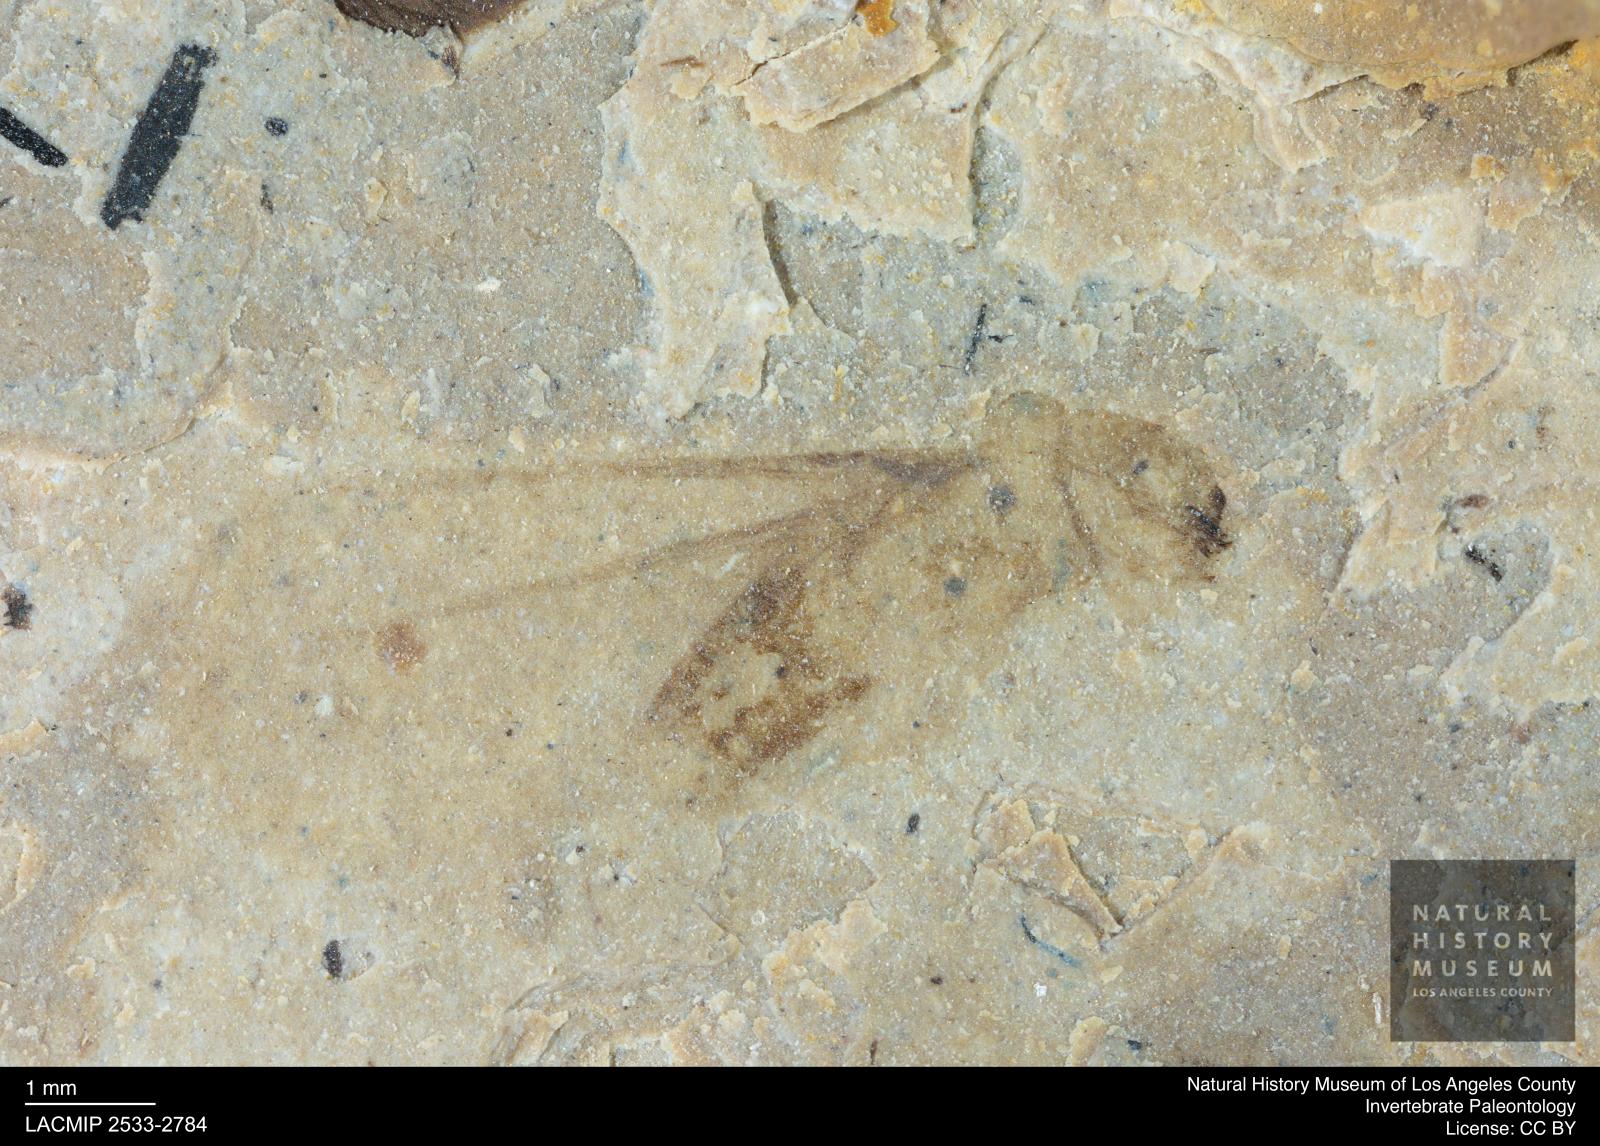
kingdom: Animalia
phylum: Arthropoda
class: Insecta
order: Blattodea
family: Kalotermitidae
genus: Kalotermes
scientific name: Kalotermes rhenanus
